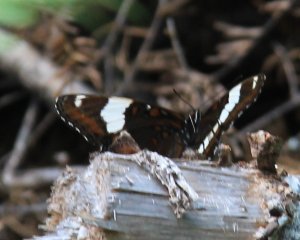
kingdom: Animalia
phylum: Arthropoda
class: Insecta
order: Lepidoptera
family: Nymphalidae
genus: Limenitis
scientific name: Limenitis arthemis
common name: Red-spotted Admiral
